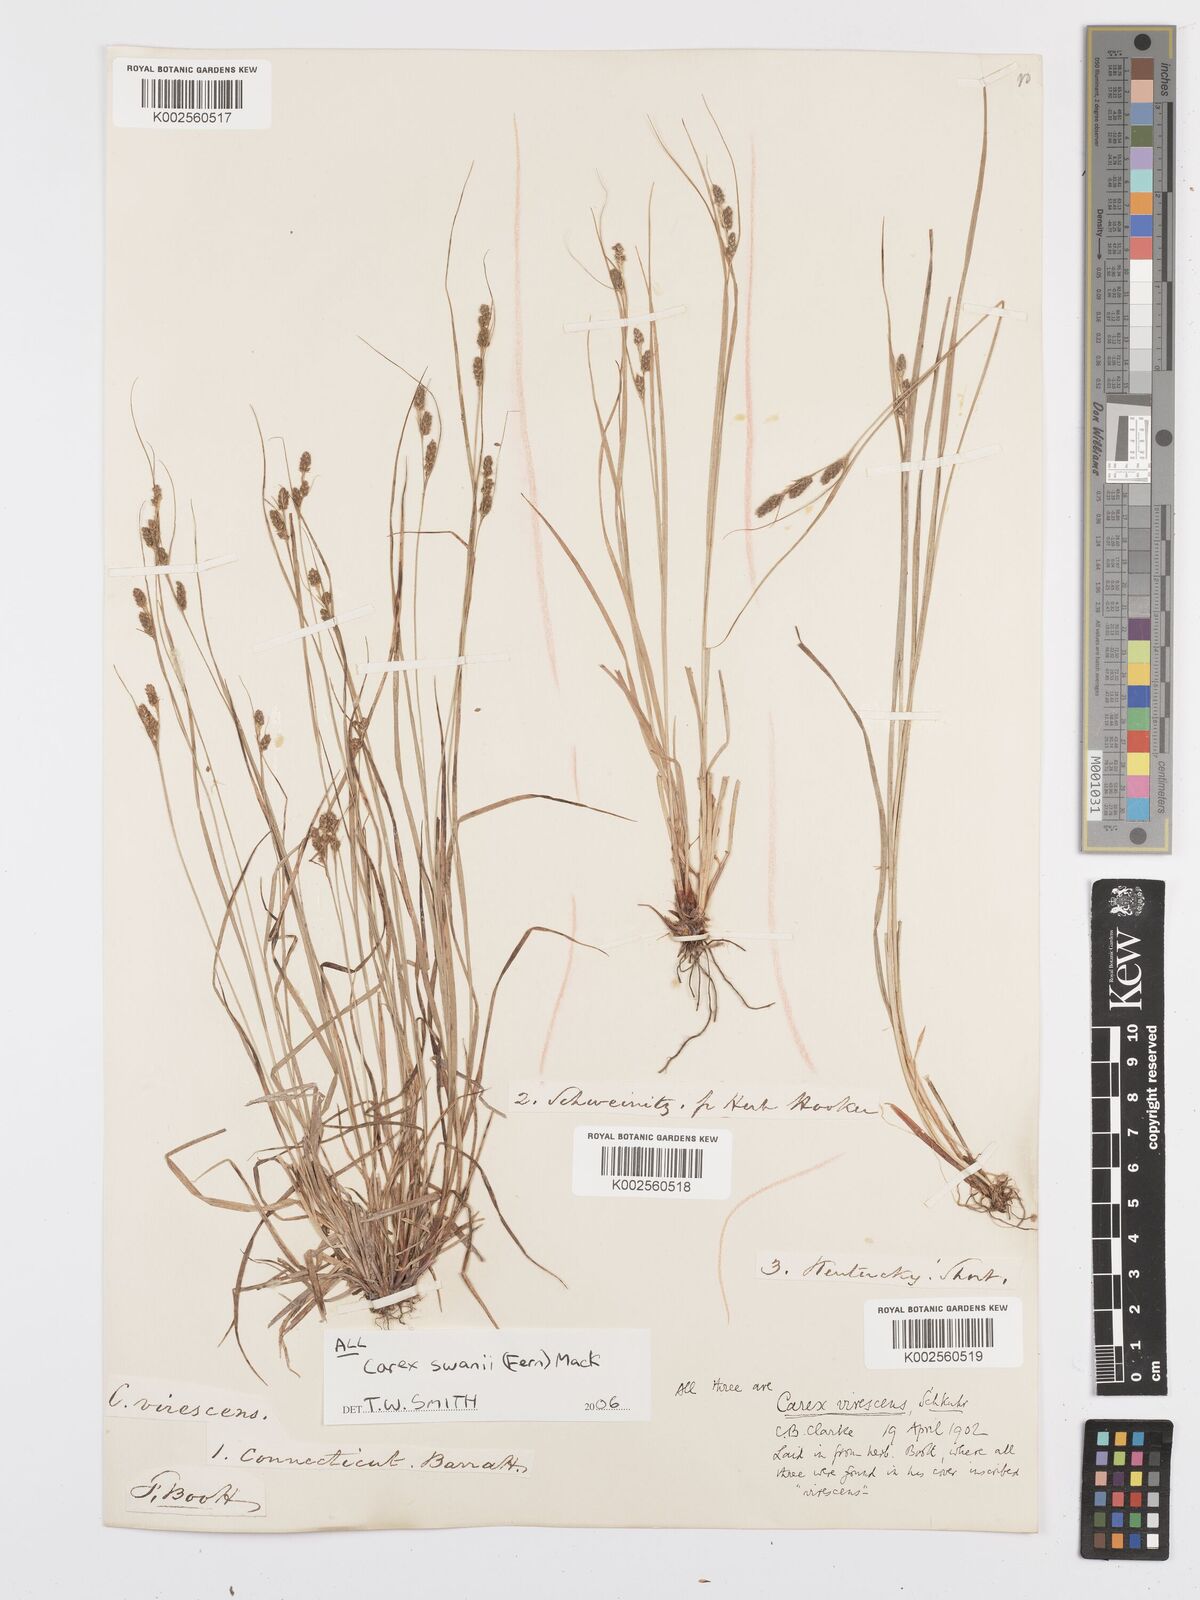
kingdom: Plantae
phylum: Tracheophyta
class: Liliopsida
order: Poales
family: Cyperaceae
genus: Carex
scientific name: Carex swanii
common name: Downy green sedge
